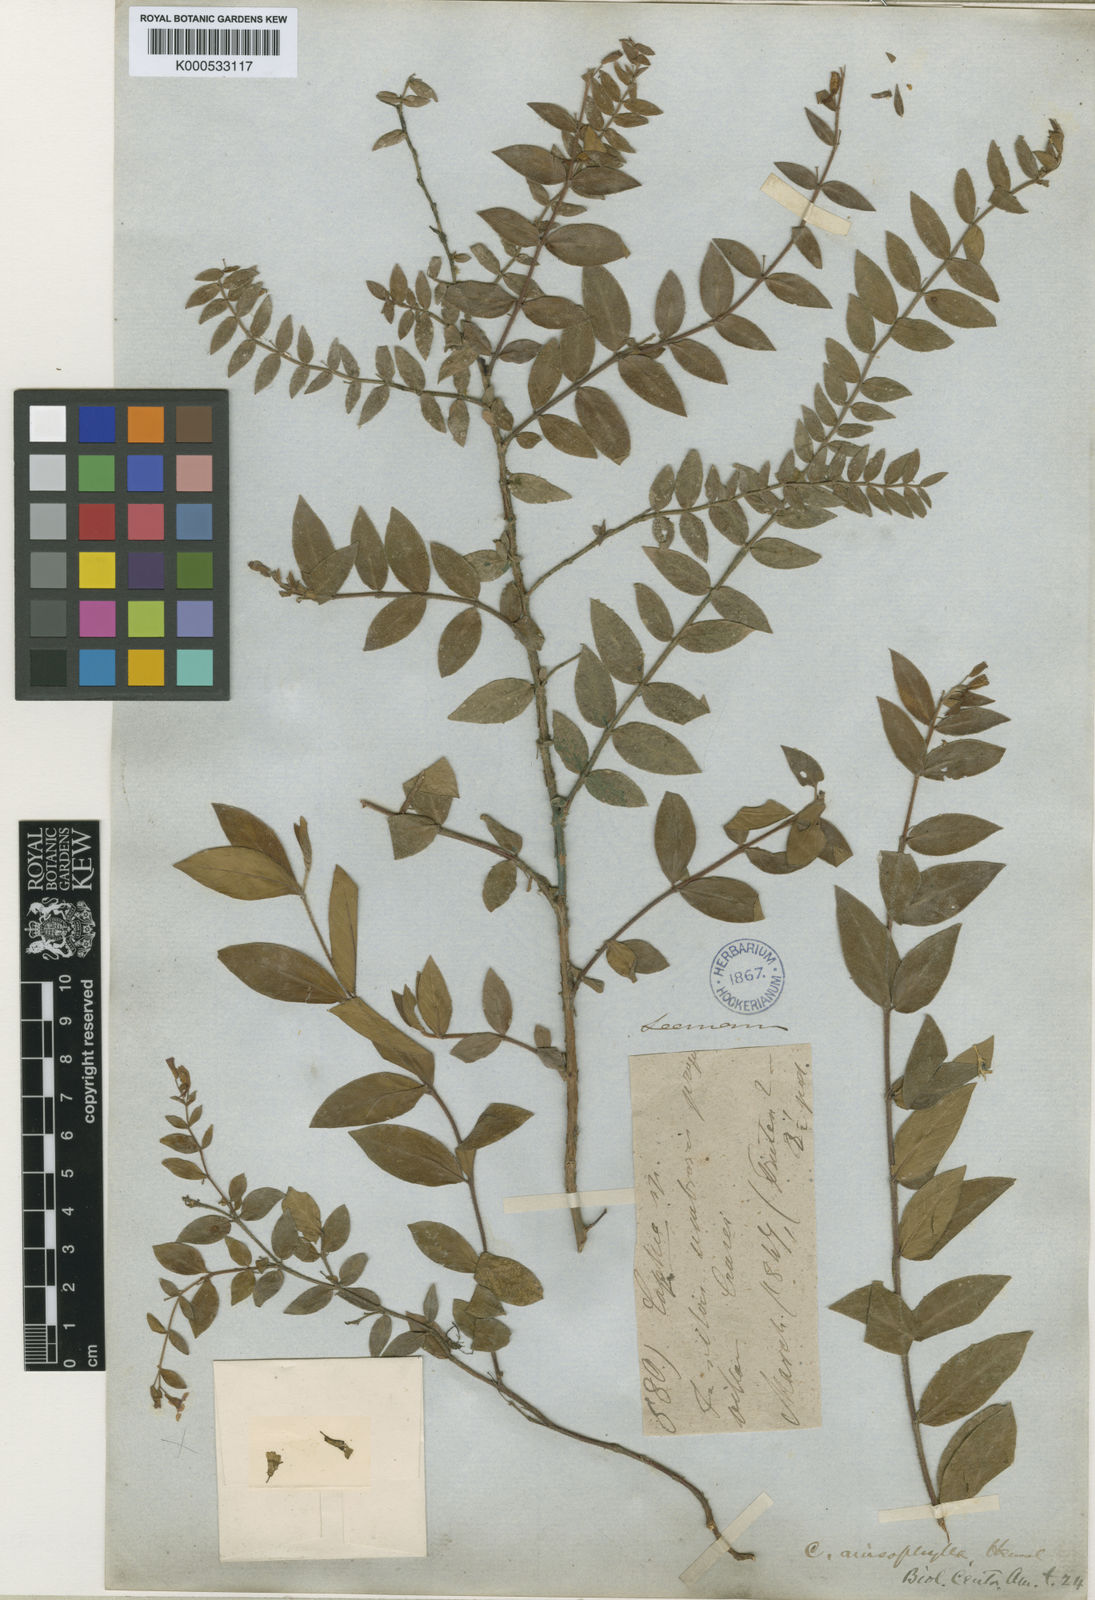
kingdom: Plantae
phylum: Tracheophyta
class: Magnoliopsida
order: Myrtales
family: Lythraceae
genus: Cuphea
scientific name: Cuphea calophylla
